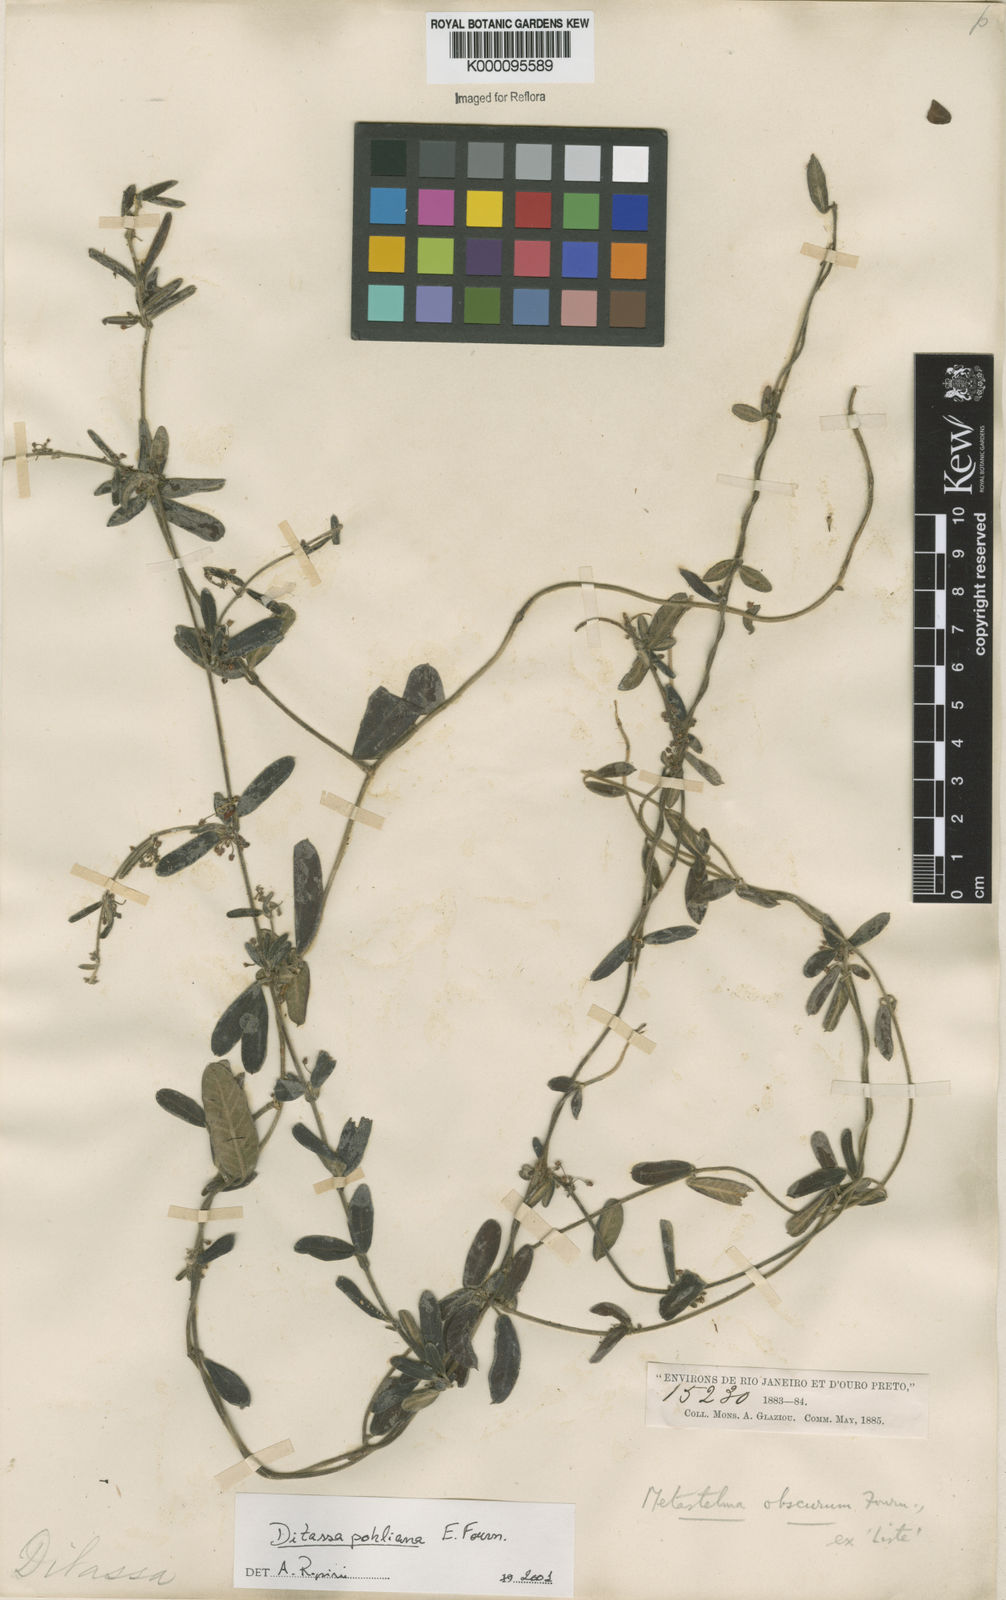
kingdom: Plantae
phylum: Tracheophyta
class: Magnoliopsida
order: Gentianales
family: Apocynaceae
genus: Ditassa
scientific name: Ditassa pohliana
